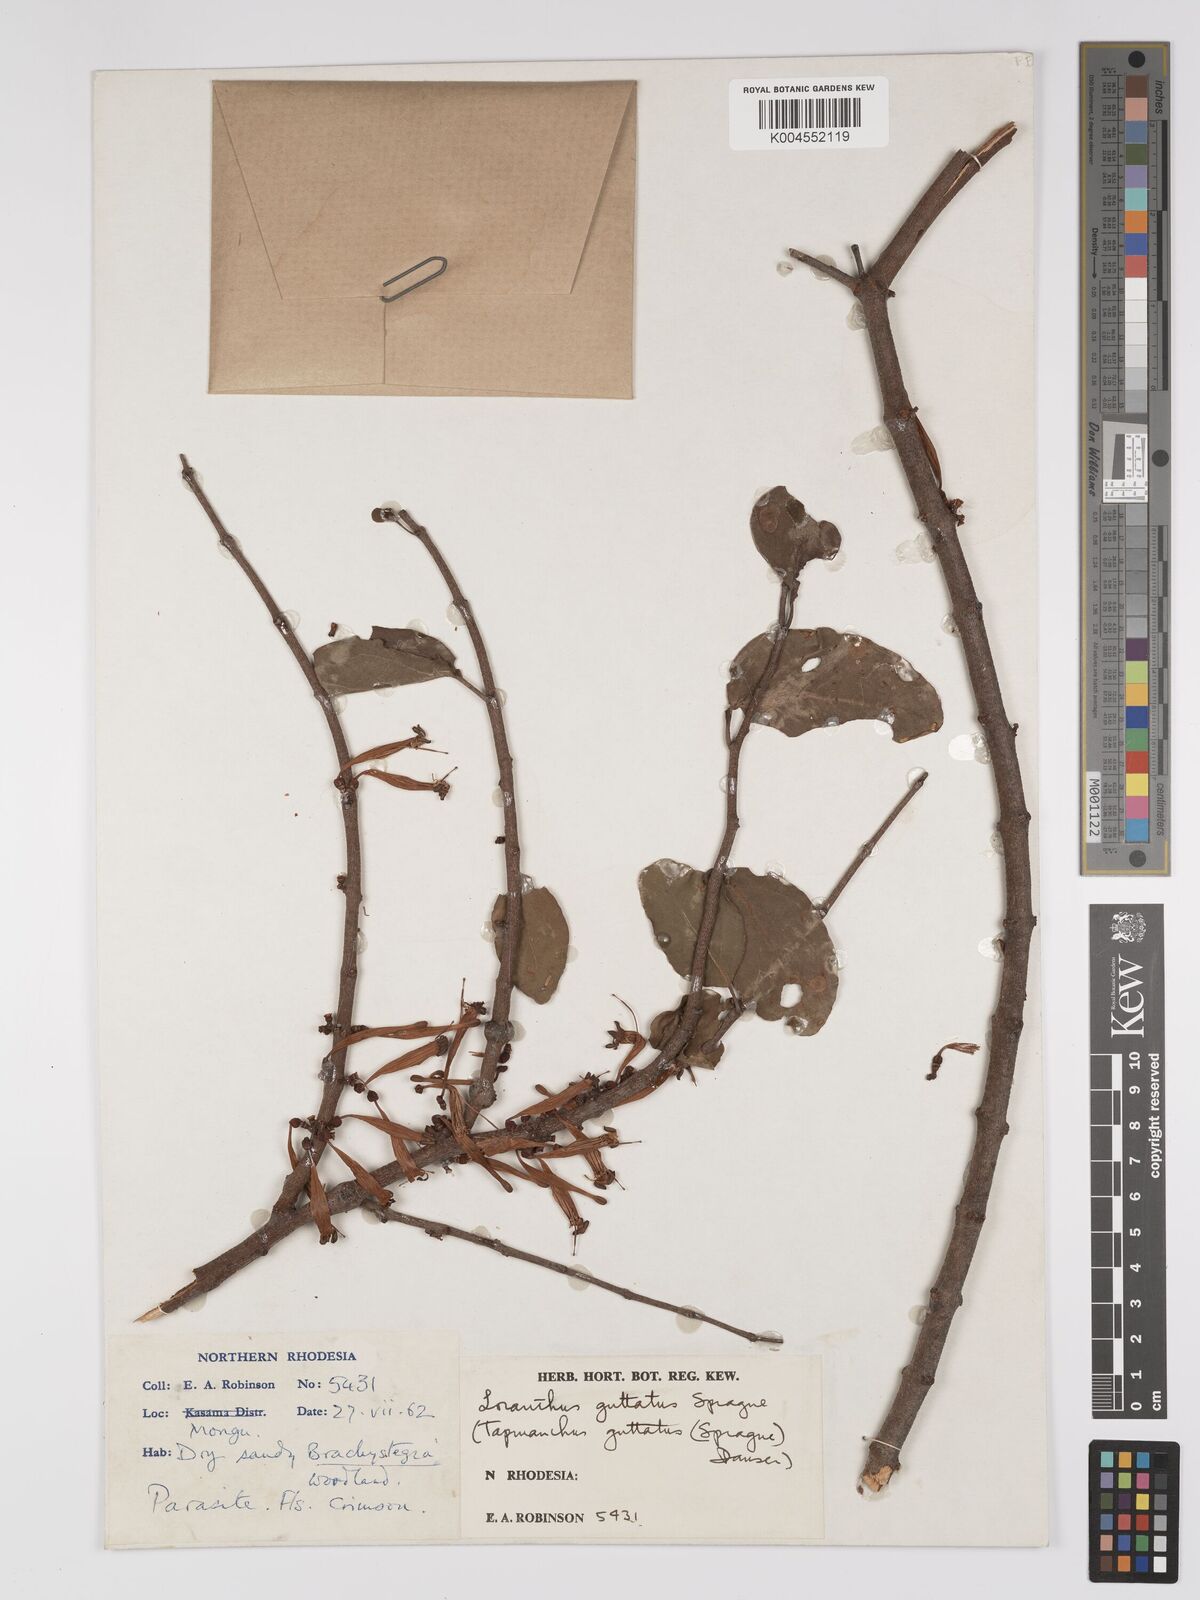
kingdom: Plantae
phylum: Tracheophyta
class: Magnoliopsida
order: Santalales
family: Loranthaceae
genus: Tapinanthus
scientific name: Tapinanthus forbesii
